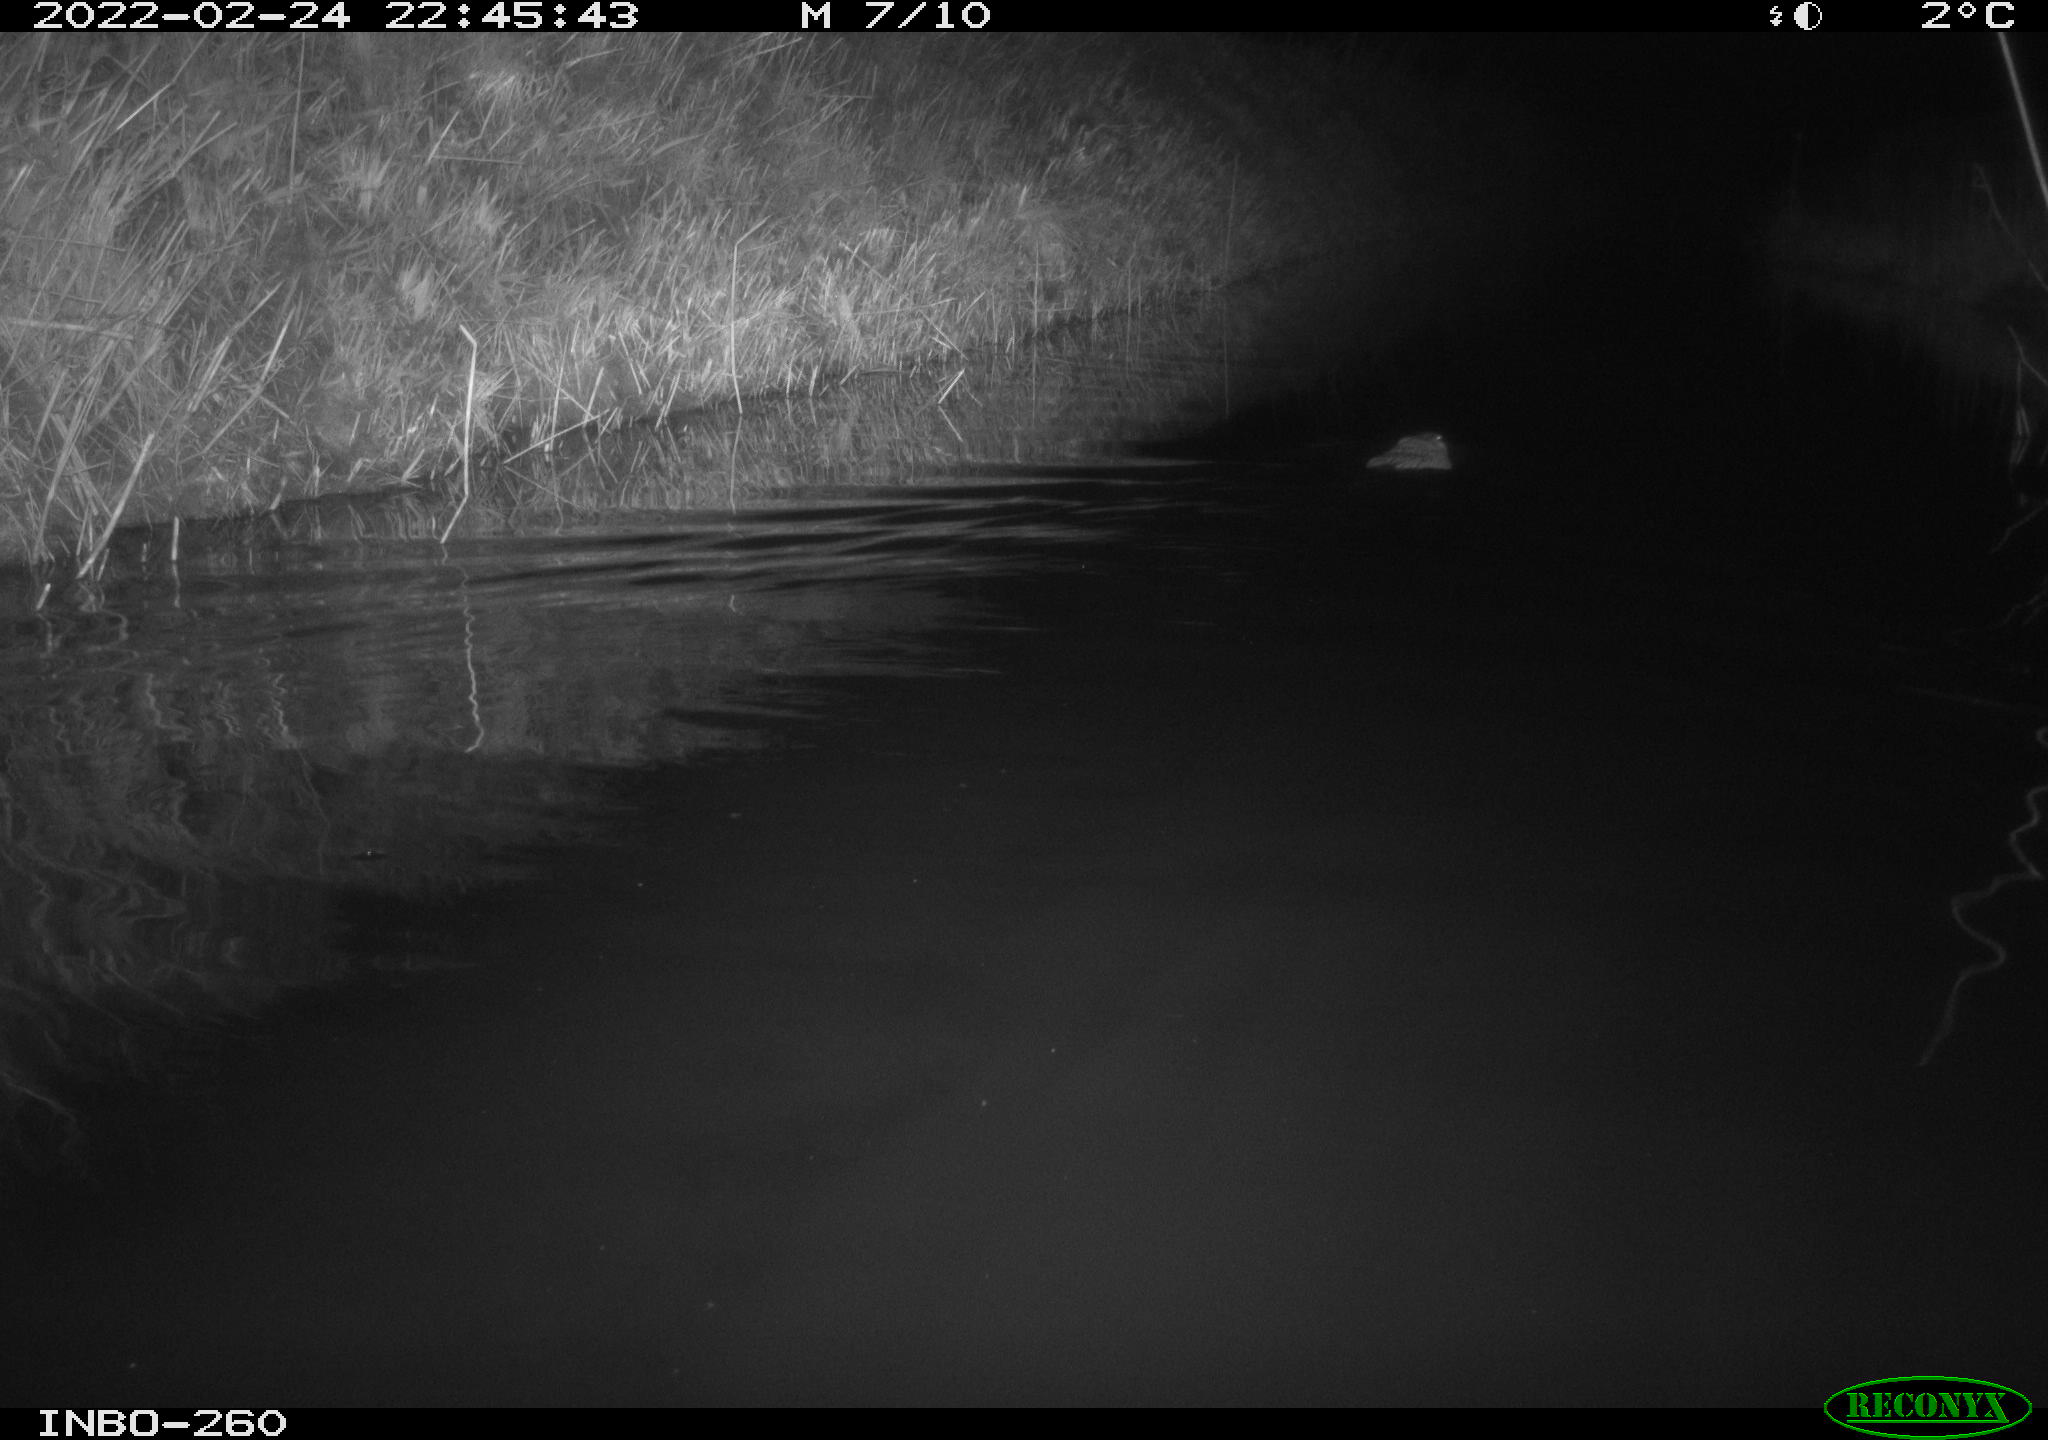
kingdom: Animalia
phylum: Chordata
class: Mammalia
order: Rodentia
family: Cricetidae
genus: Ondatra
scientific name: Ondatra zibethicus
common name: Muskrat
